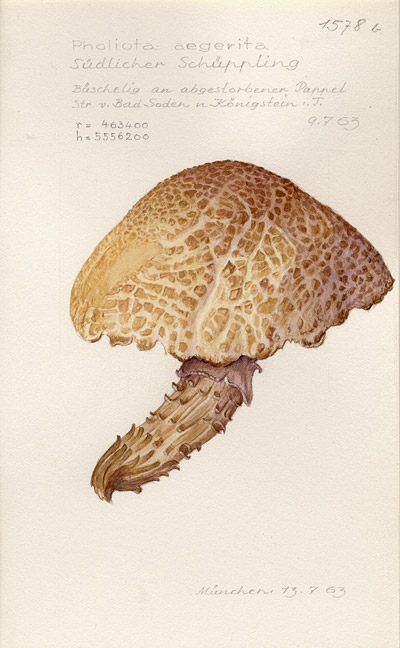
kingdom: Fungi
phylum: Basidiomycota
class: Agaricomycetes
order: Agaricales
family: Tubariaceae
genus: Cyclocybe
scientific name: Cyclocybe aegerita
